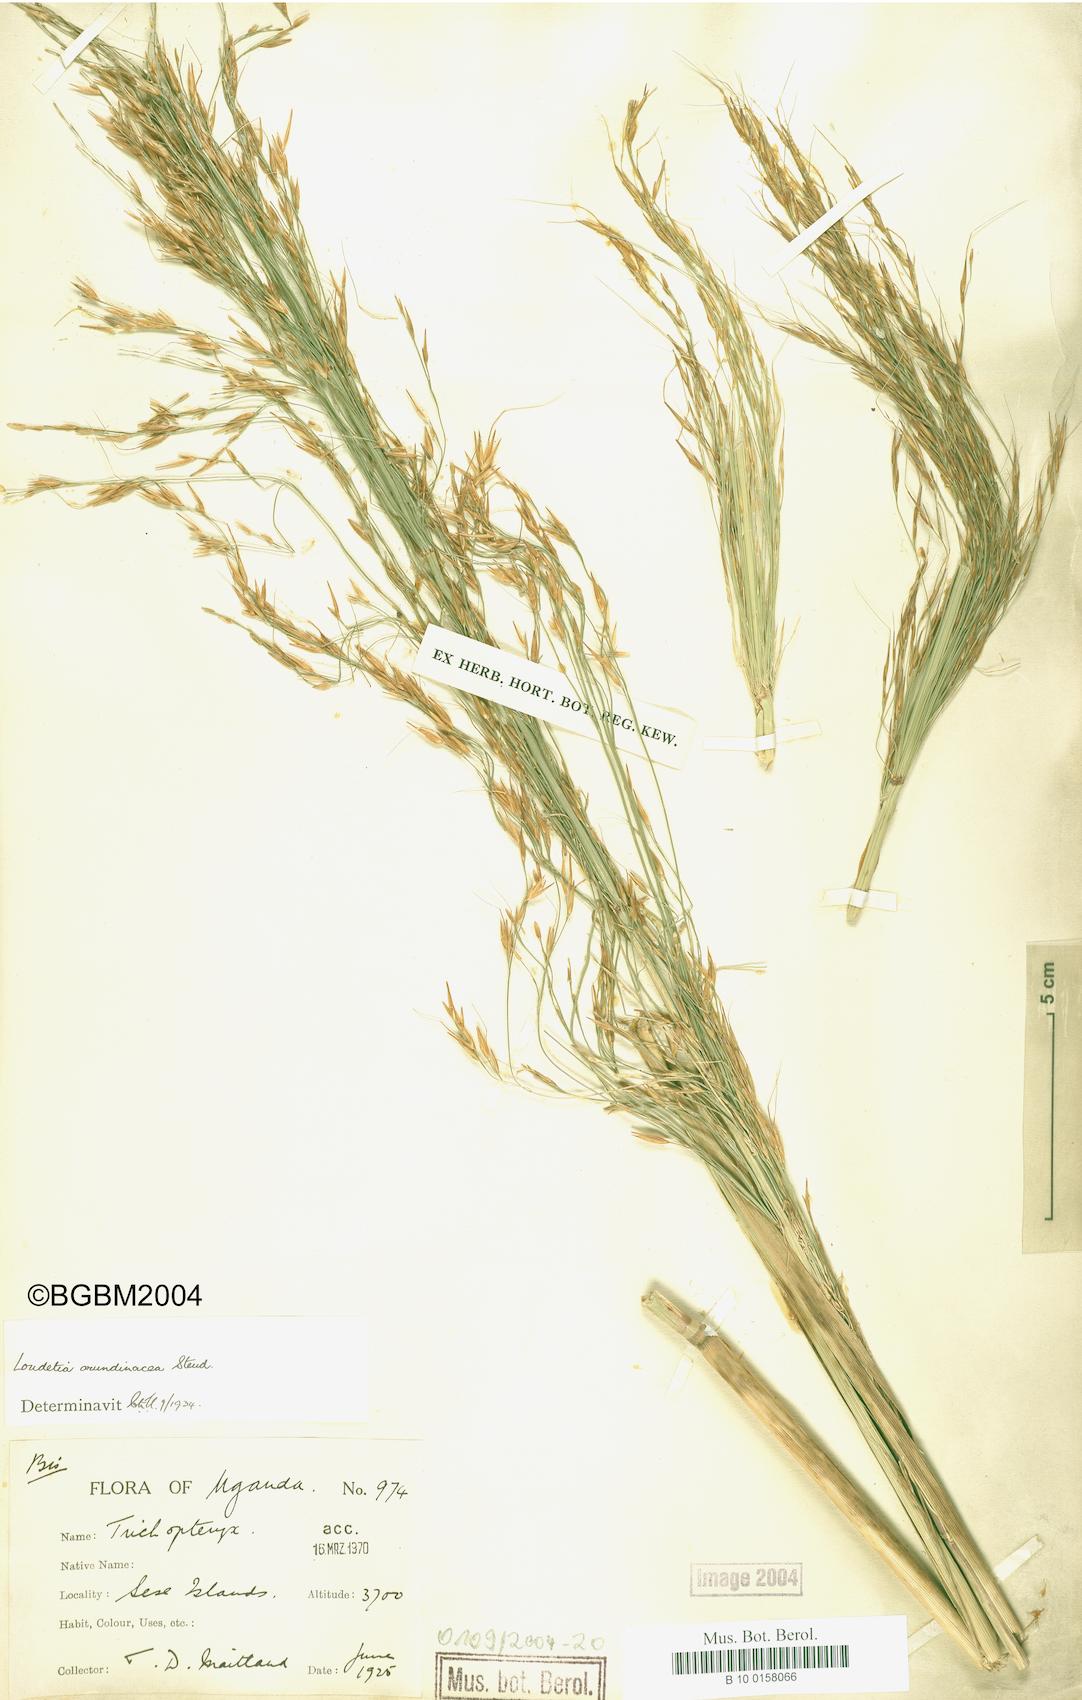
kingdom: Plantae
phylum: Tracheophyta
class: Liliopsida
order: Poales
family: Poaceae
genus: Loudetia
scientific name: Loudetia arundinacea
